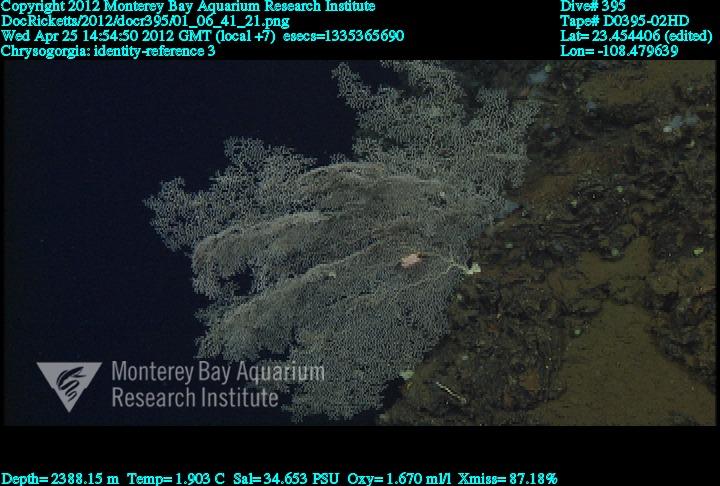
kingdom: Animalia
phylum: Cnidaria
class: Anthozoa
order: Scleralcyonacea
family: Chrysogorgiidae
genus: Chrysogorgia
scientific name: Chrysogorgia
